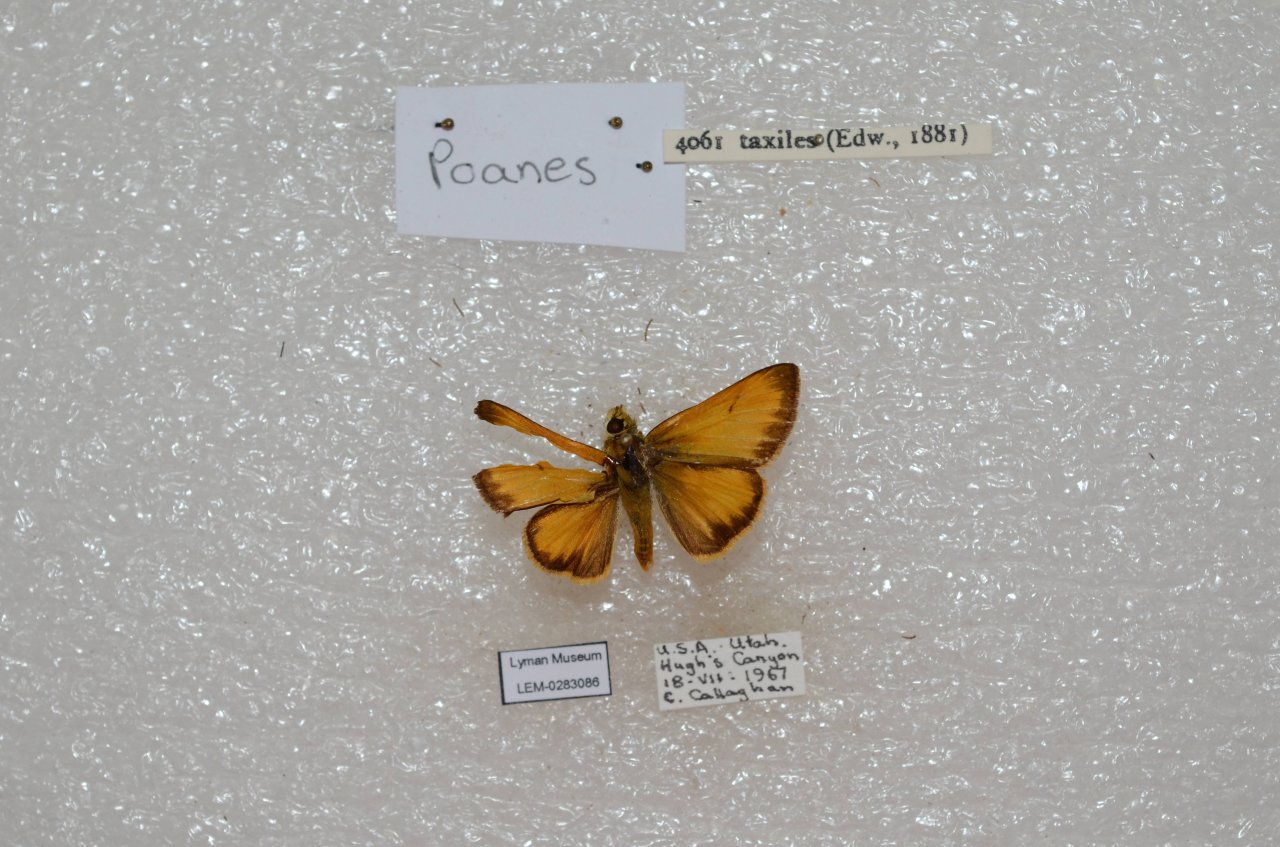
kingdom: Animalia
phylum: Arthropoda
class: Insecta
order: Lepidoptera
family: Hesperiidae
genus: Lon
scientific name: Lon taxiles
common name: Taxiles Skipper
